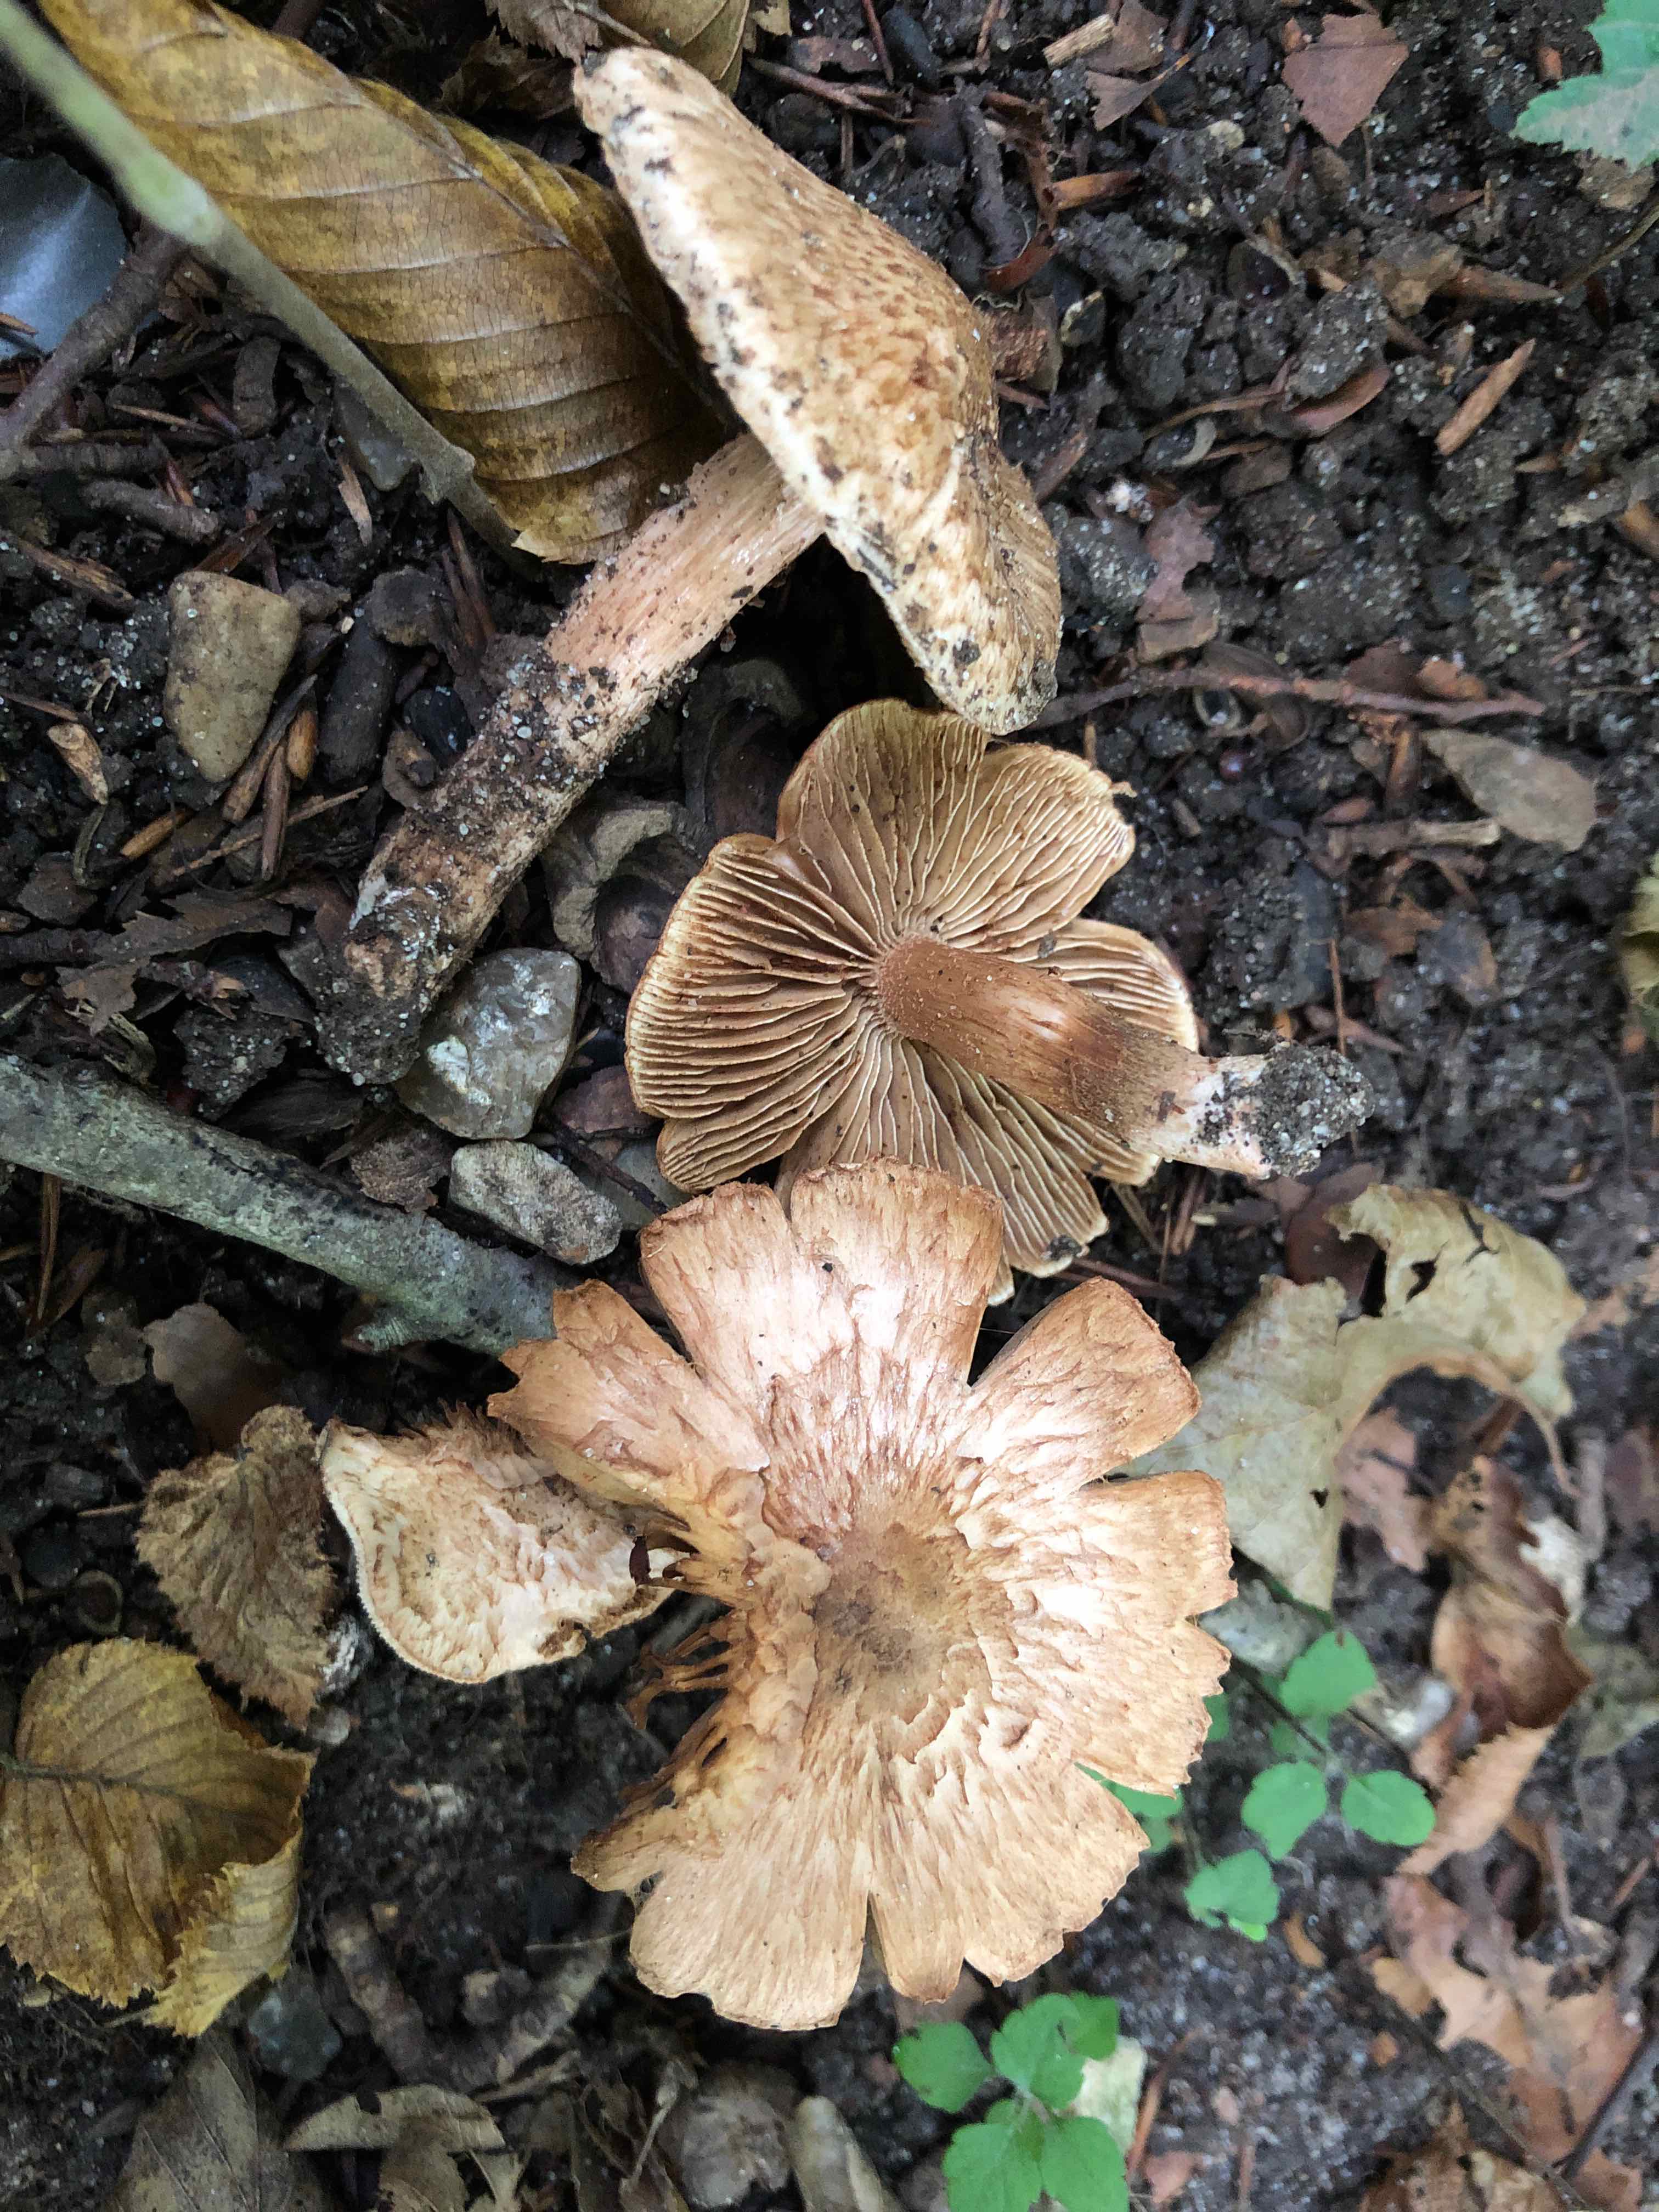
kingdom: Fungi
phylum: Basidiomycota
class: Agaricomycetes
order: Agaricales
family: Inocybaceae
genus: Inosperma
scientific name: Inosperma bongardii
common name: Bongards trævlhat
